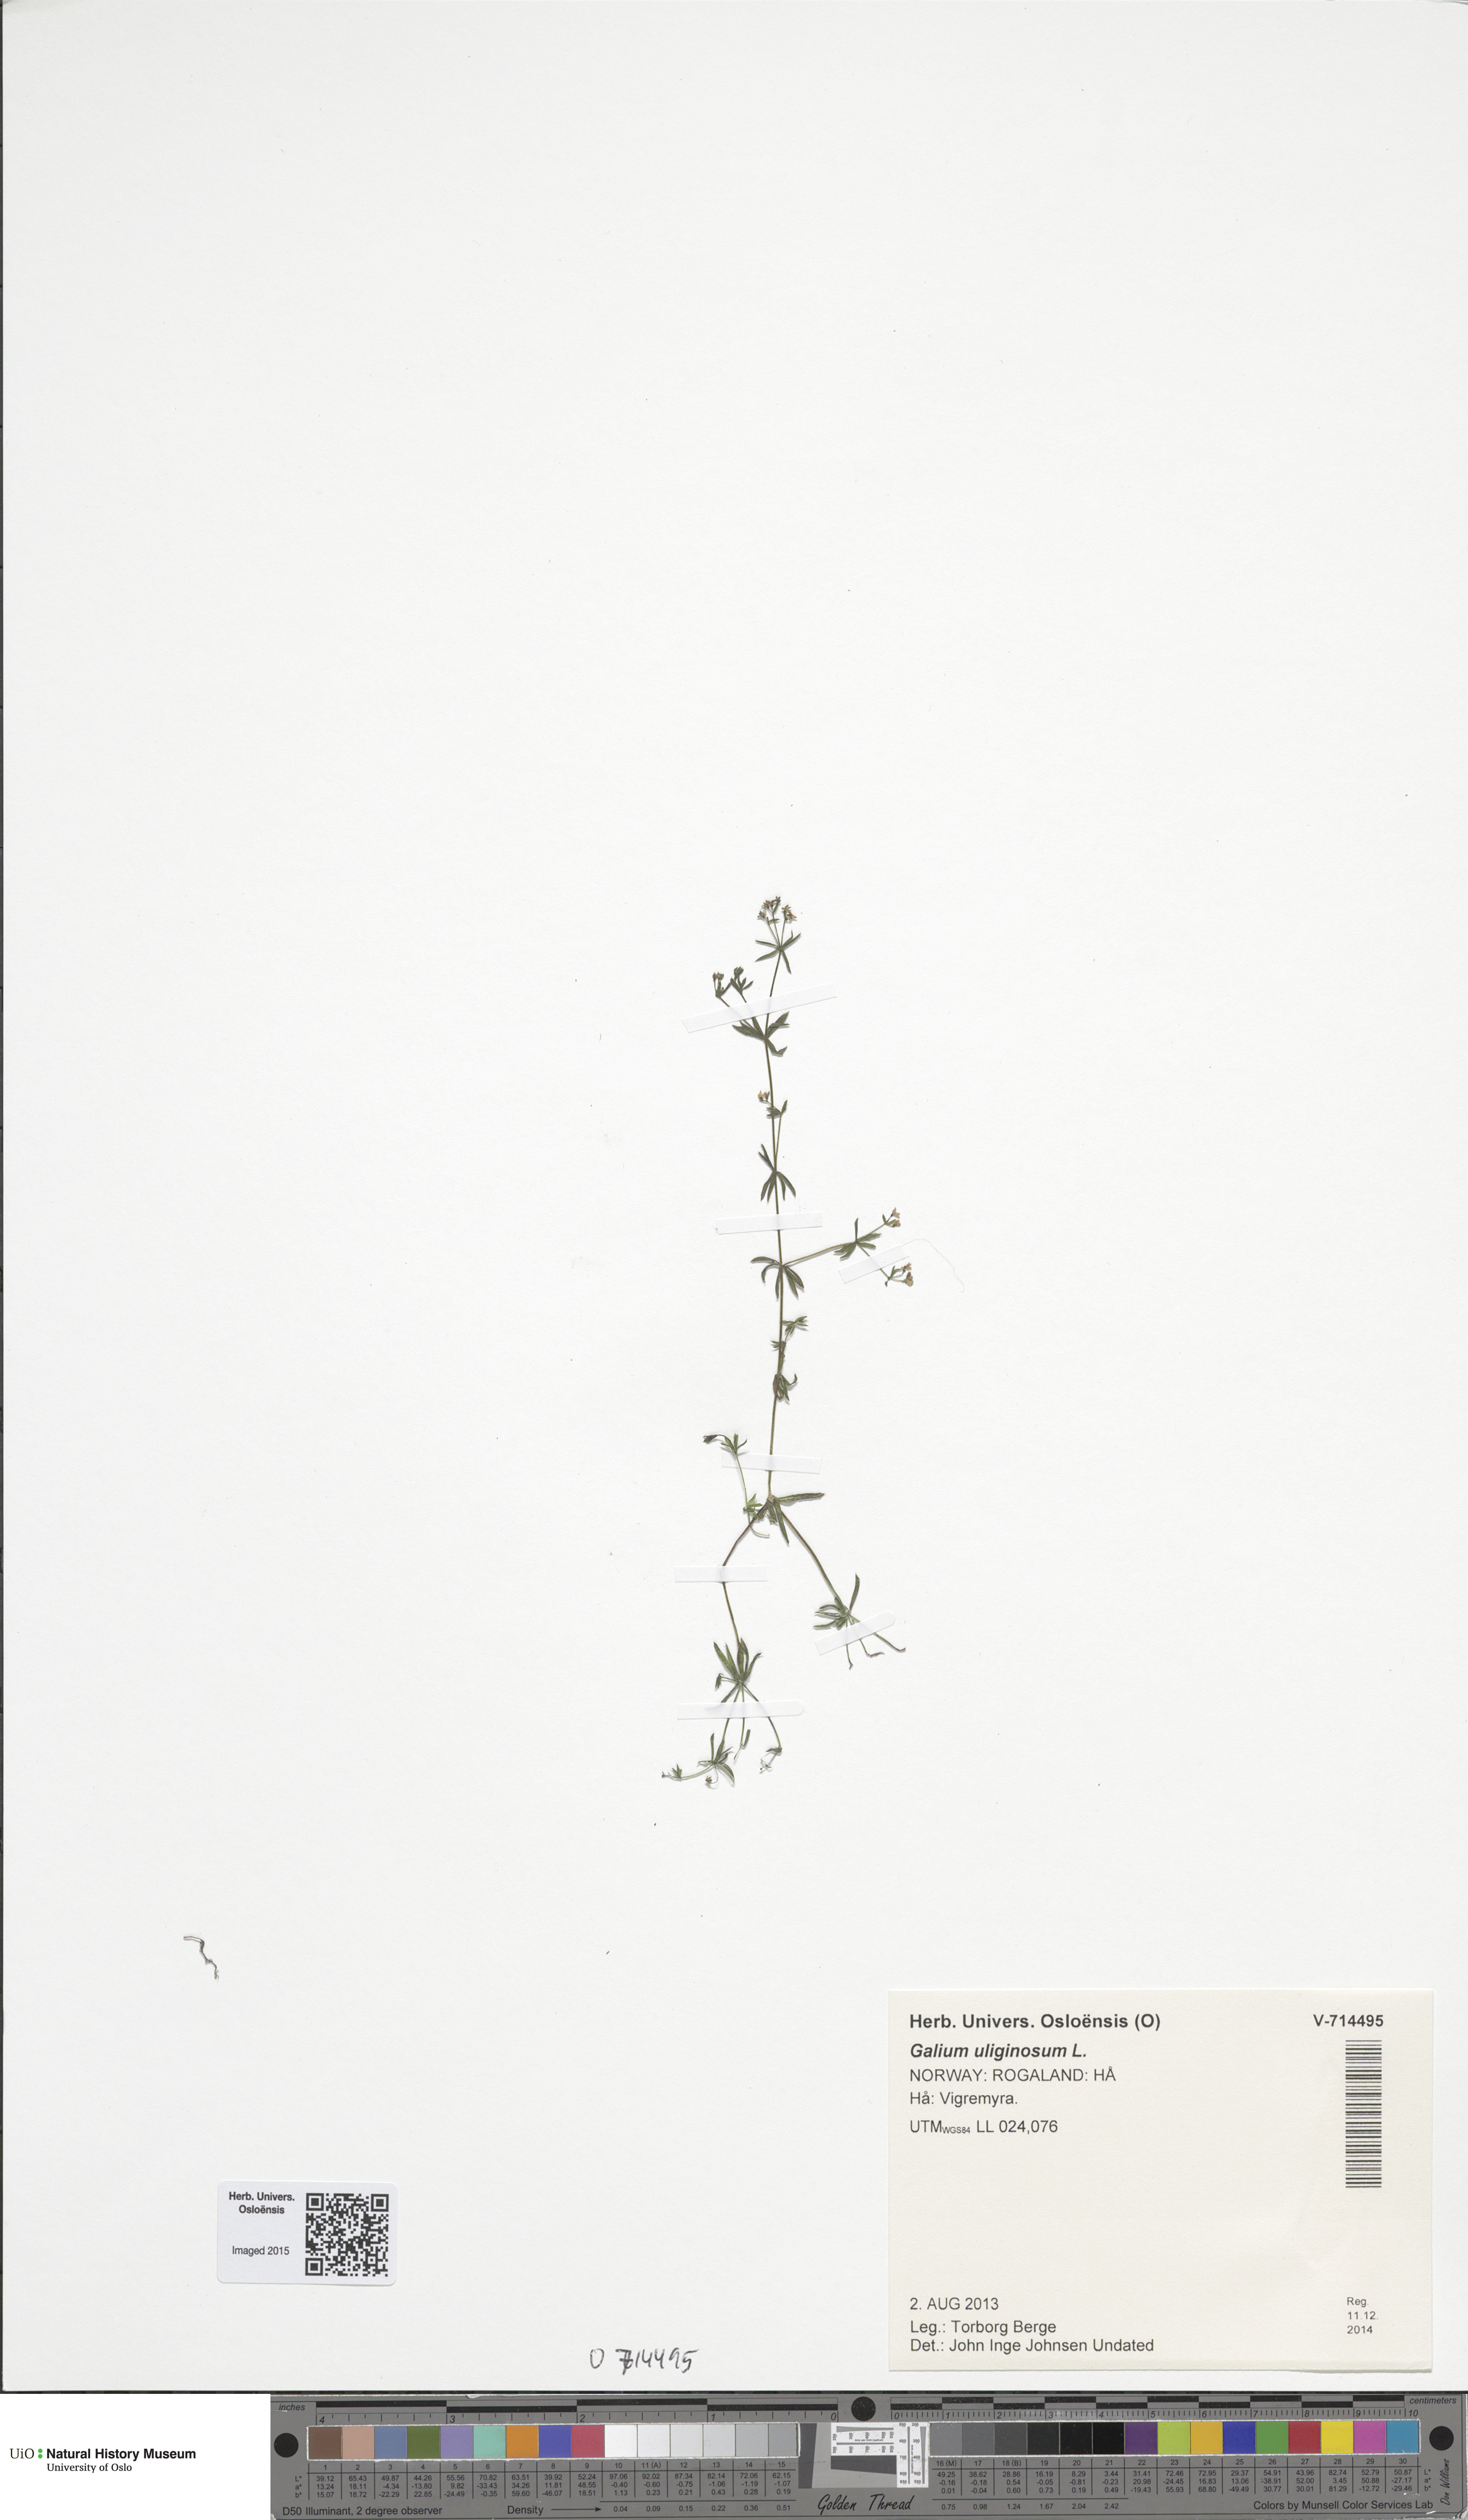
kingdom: Plantae
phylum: Tracheophyta
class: Magnoliopsida
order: Gentianales
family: Rubiaceae
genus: Galium
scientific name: Galium uliginosum
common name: Fen bedstraw
